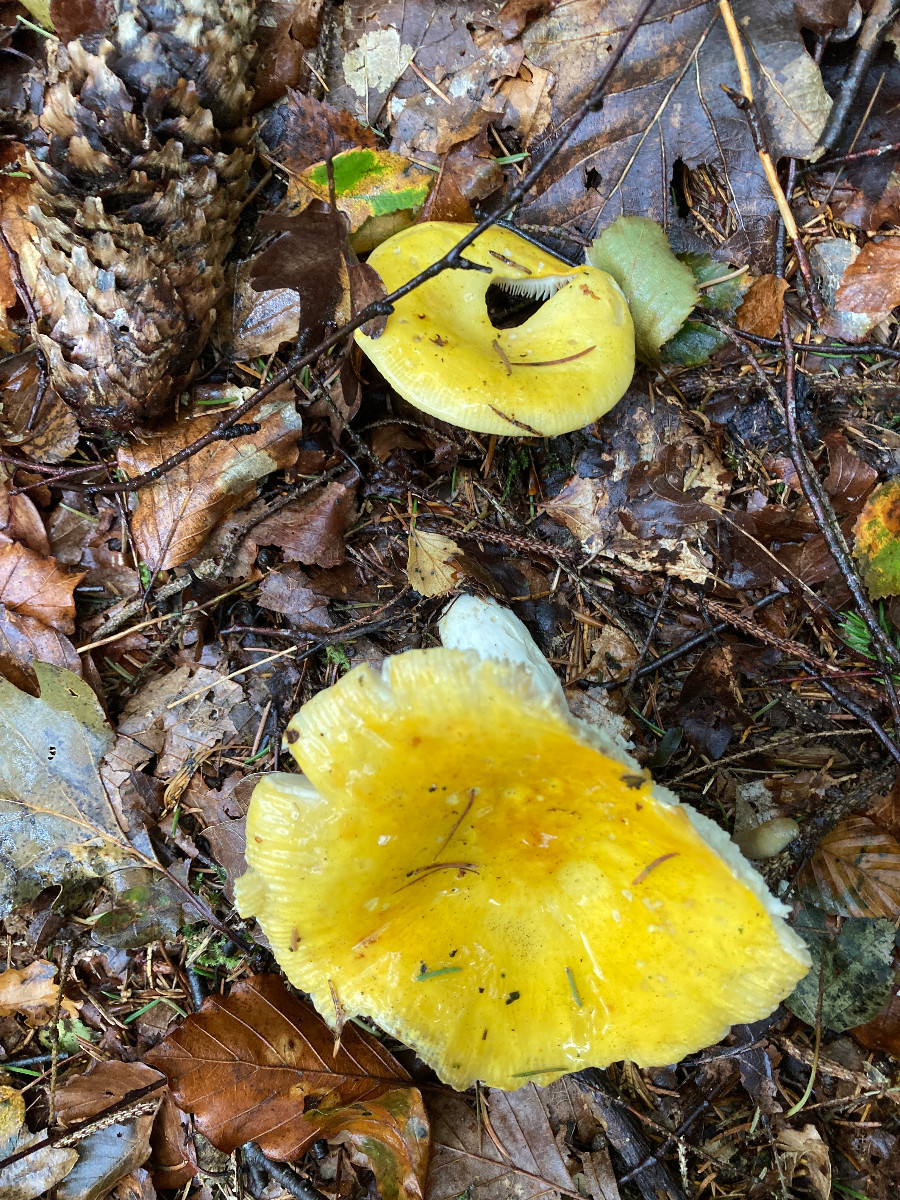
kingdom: Fungi
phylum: Basidiomycota
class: Agaricomycetes
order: Russulales
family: Russulaceae
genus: Russula
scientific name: Russula claroflava
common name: birke-skørhat
